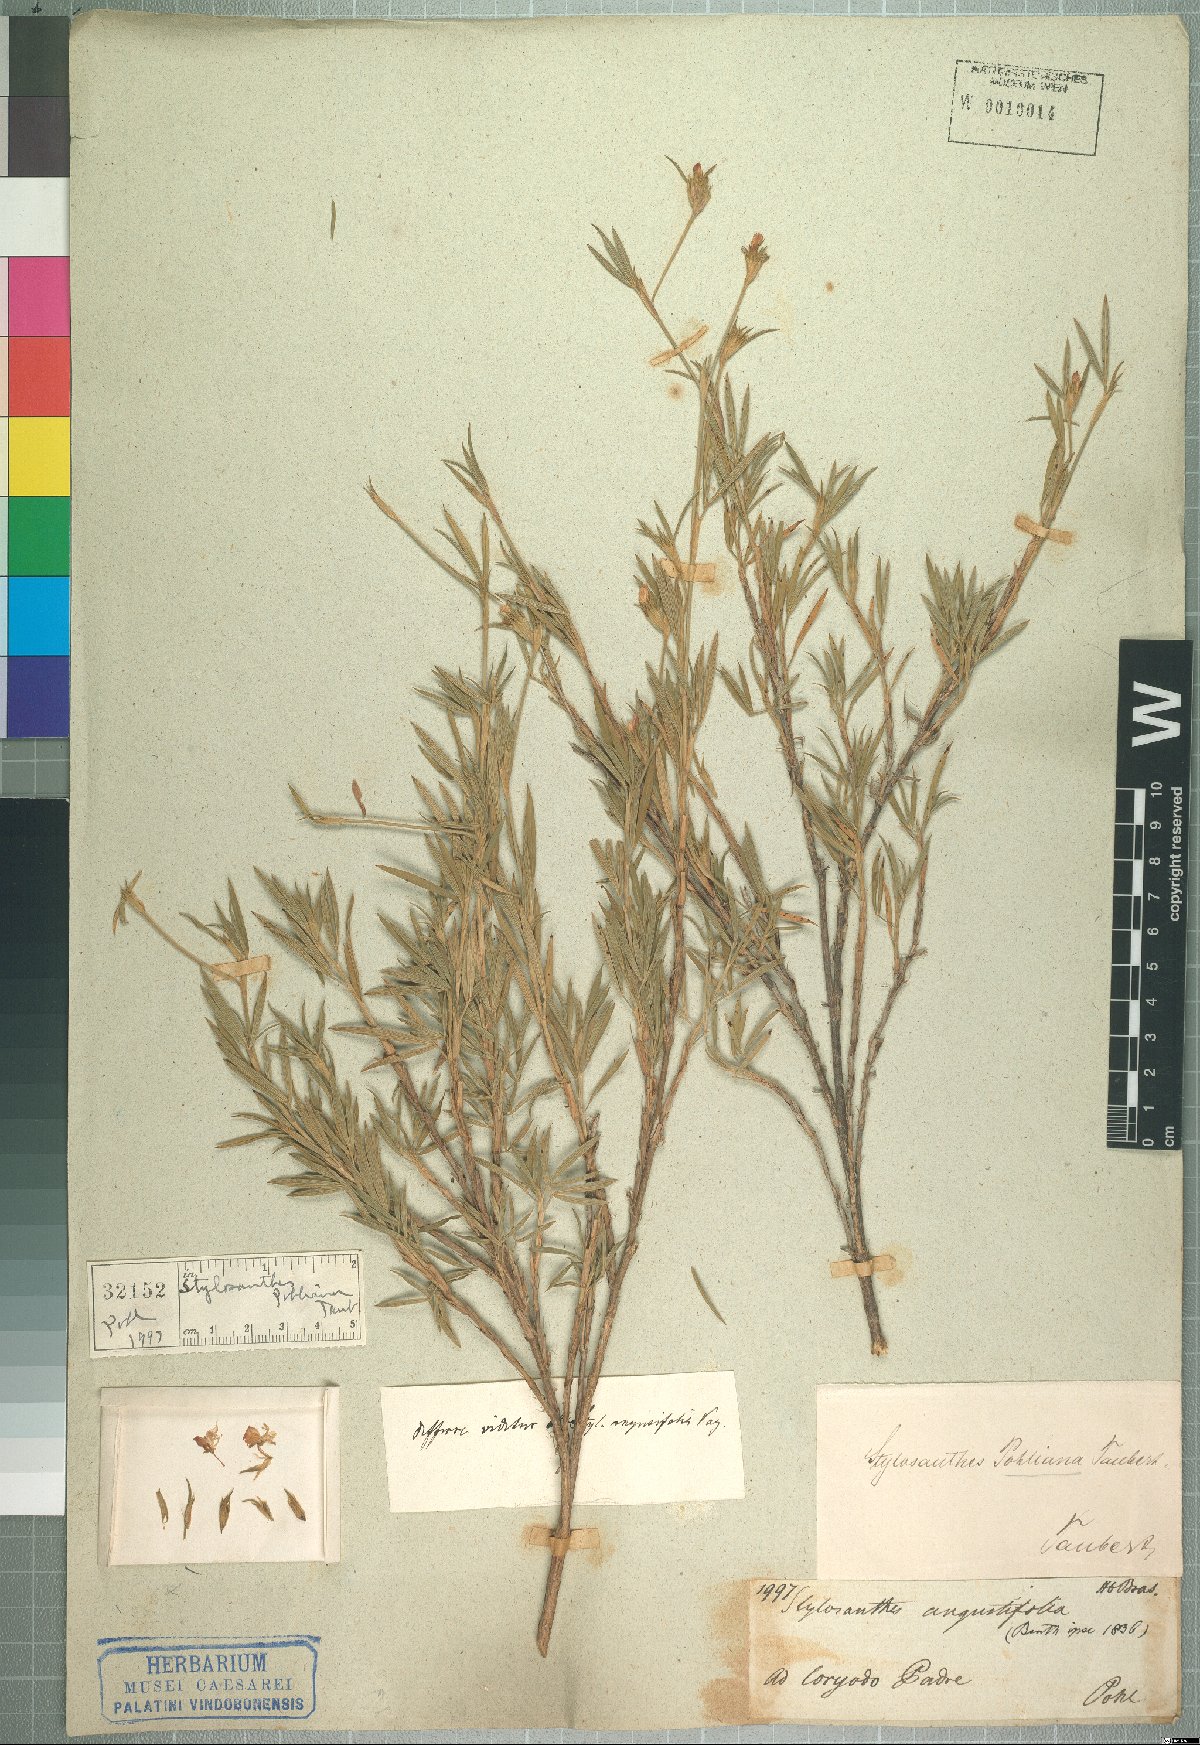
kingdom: Plantae
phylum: Tracheophyta
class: Magnoliopsida
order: Fabales
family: Fabaceae
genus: Stylosanthes
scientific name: Stylosanthes guianensis
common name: Pencil flower
